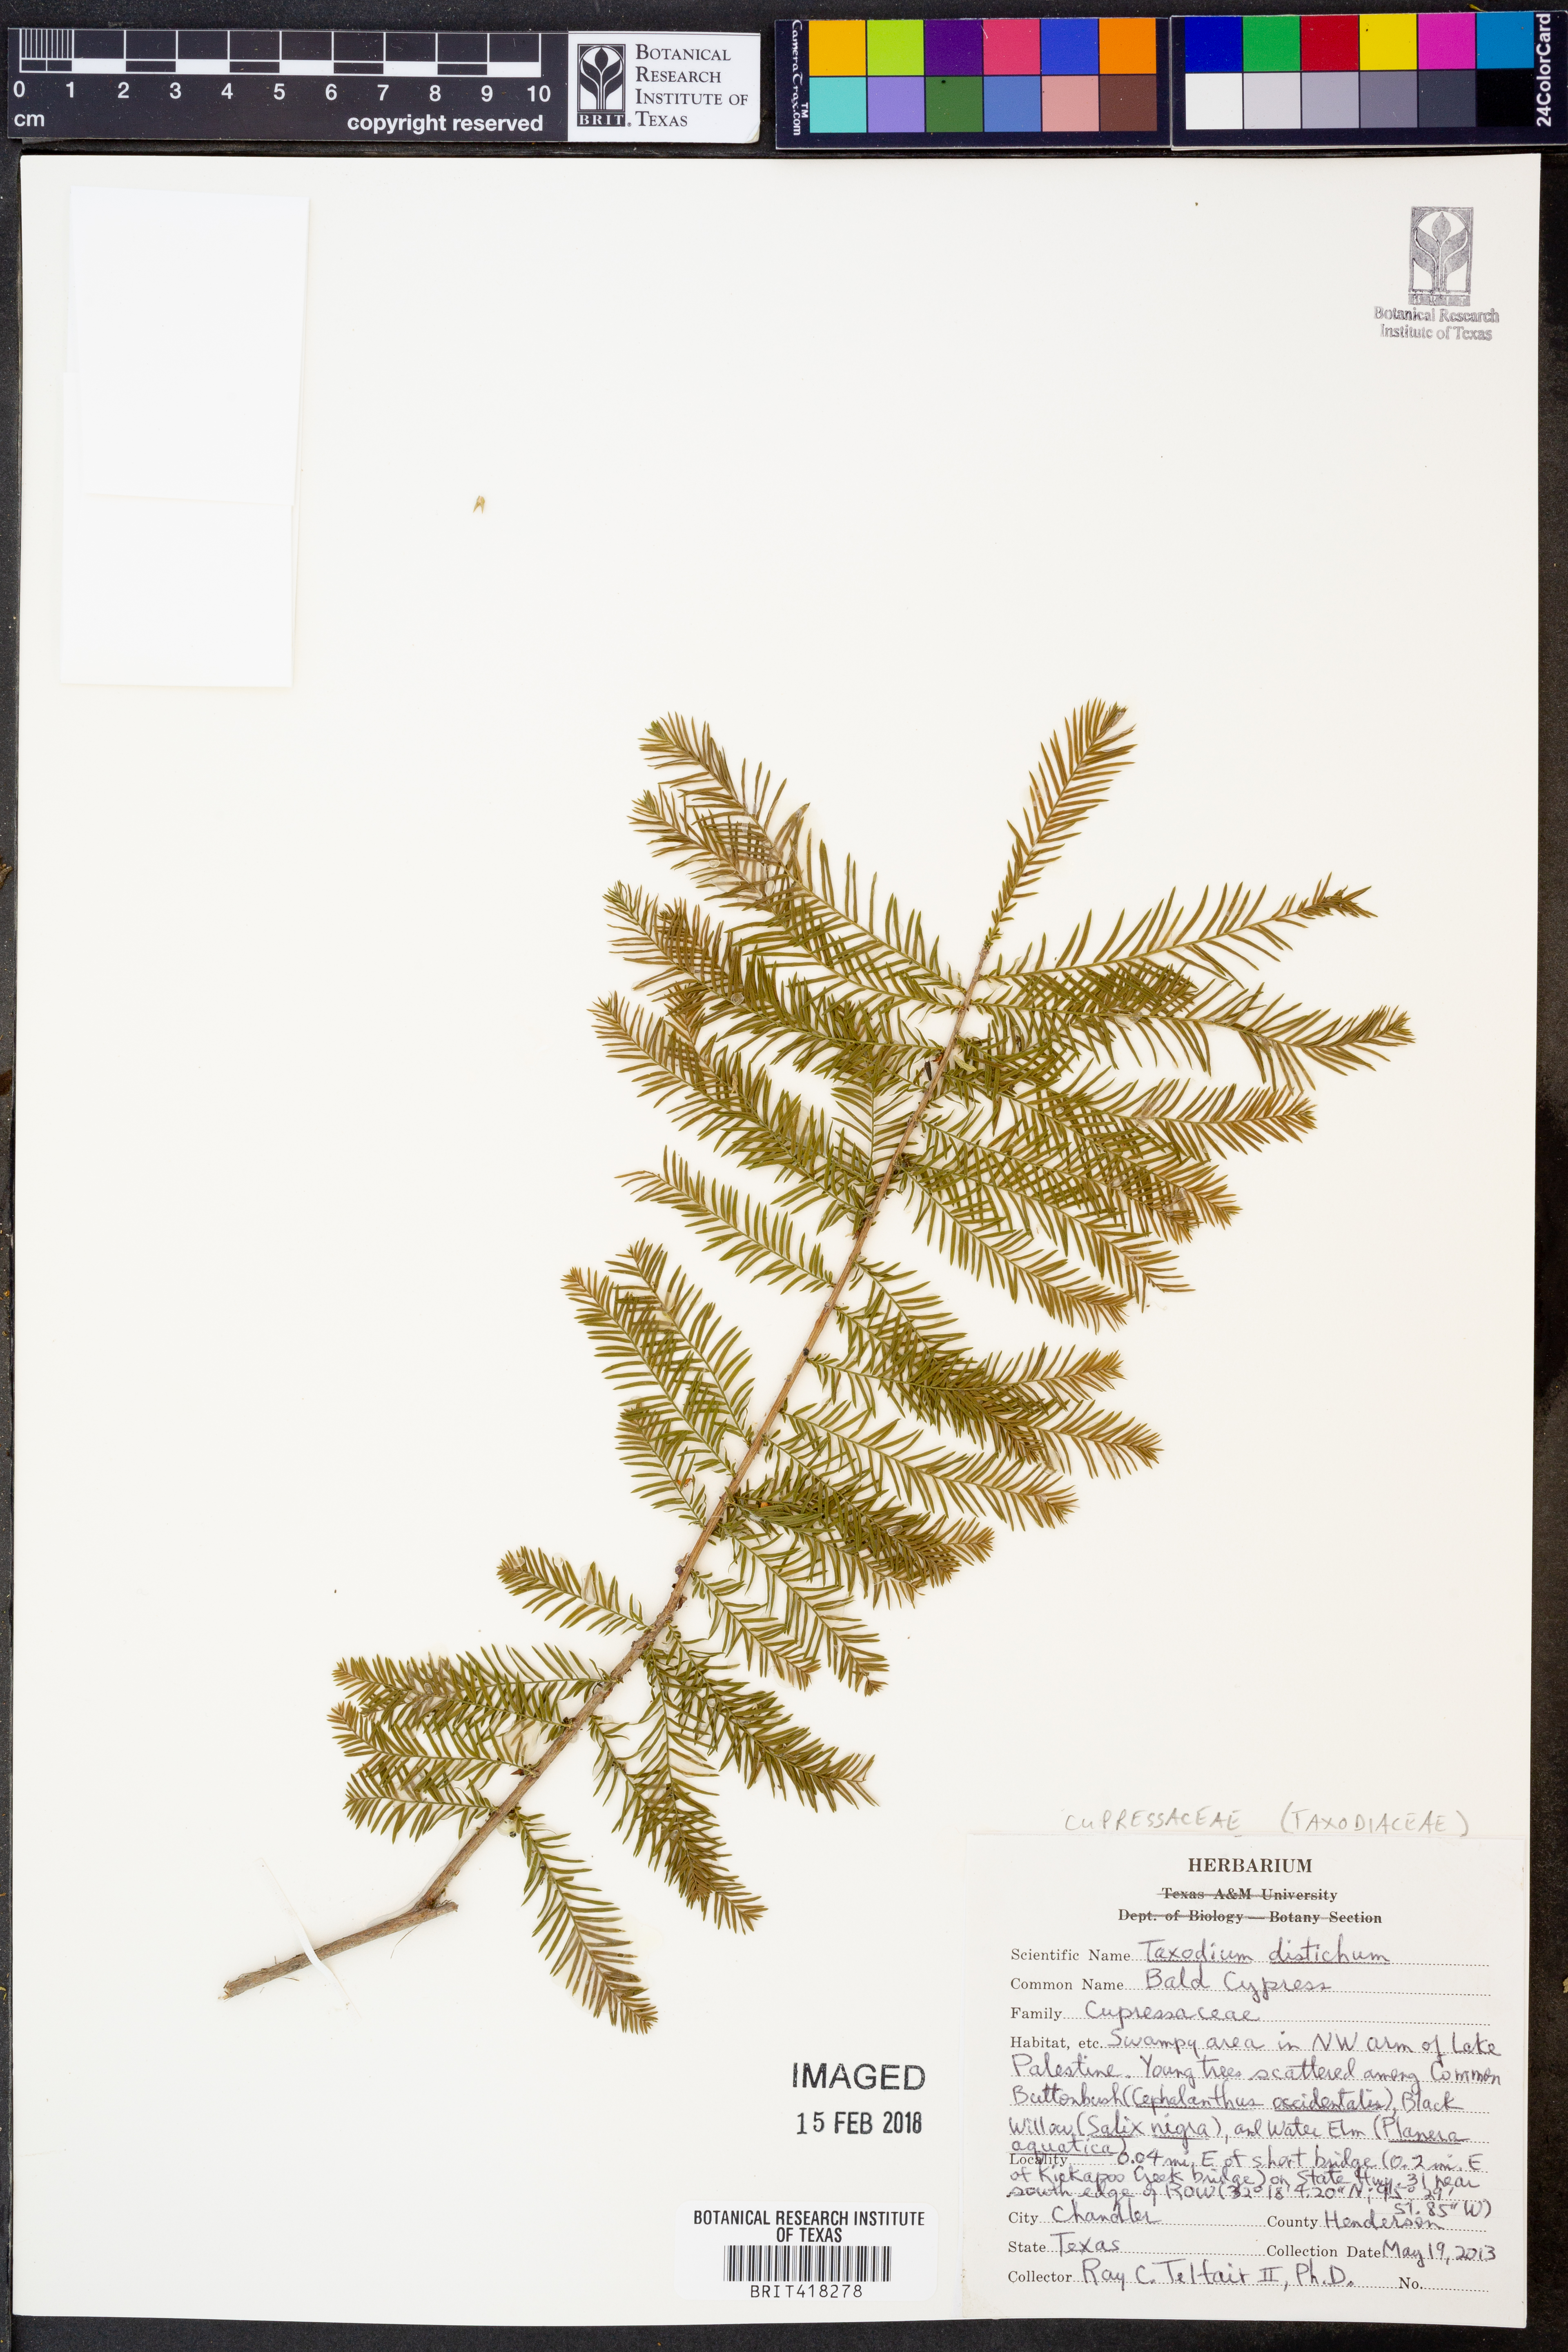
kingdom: Plantae
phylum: Tracheophyta
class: Pinopsida
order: Pinales
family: Cupressaceae
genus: Taxodium
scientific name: Taxodium distichum
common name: Bald cypress
